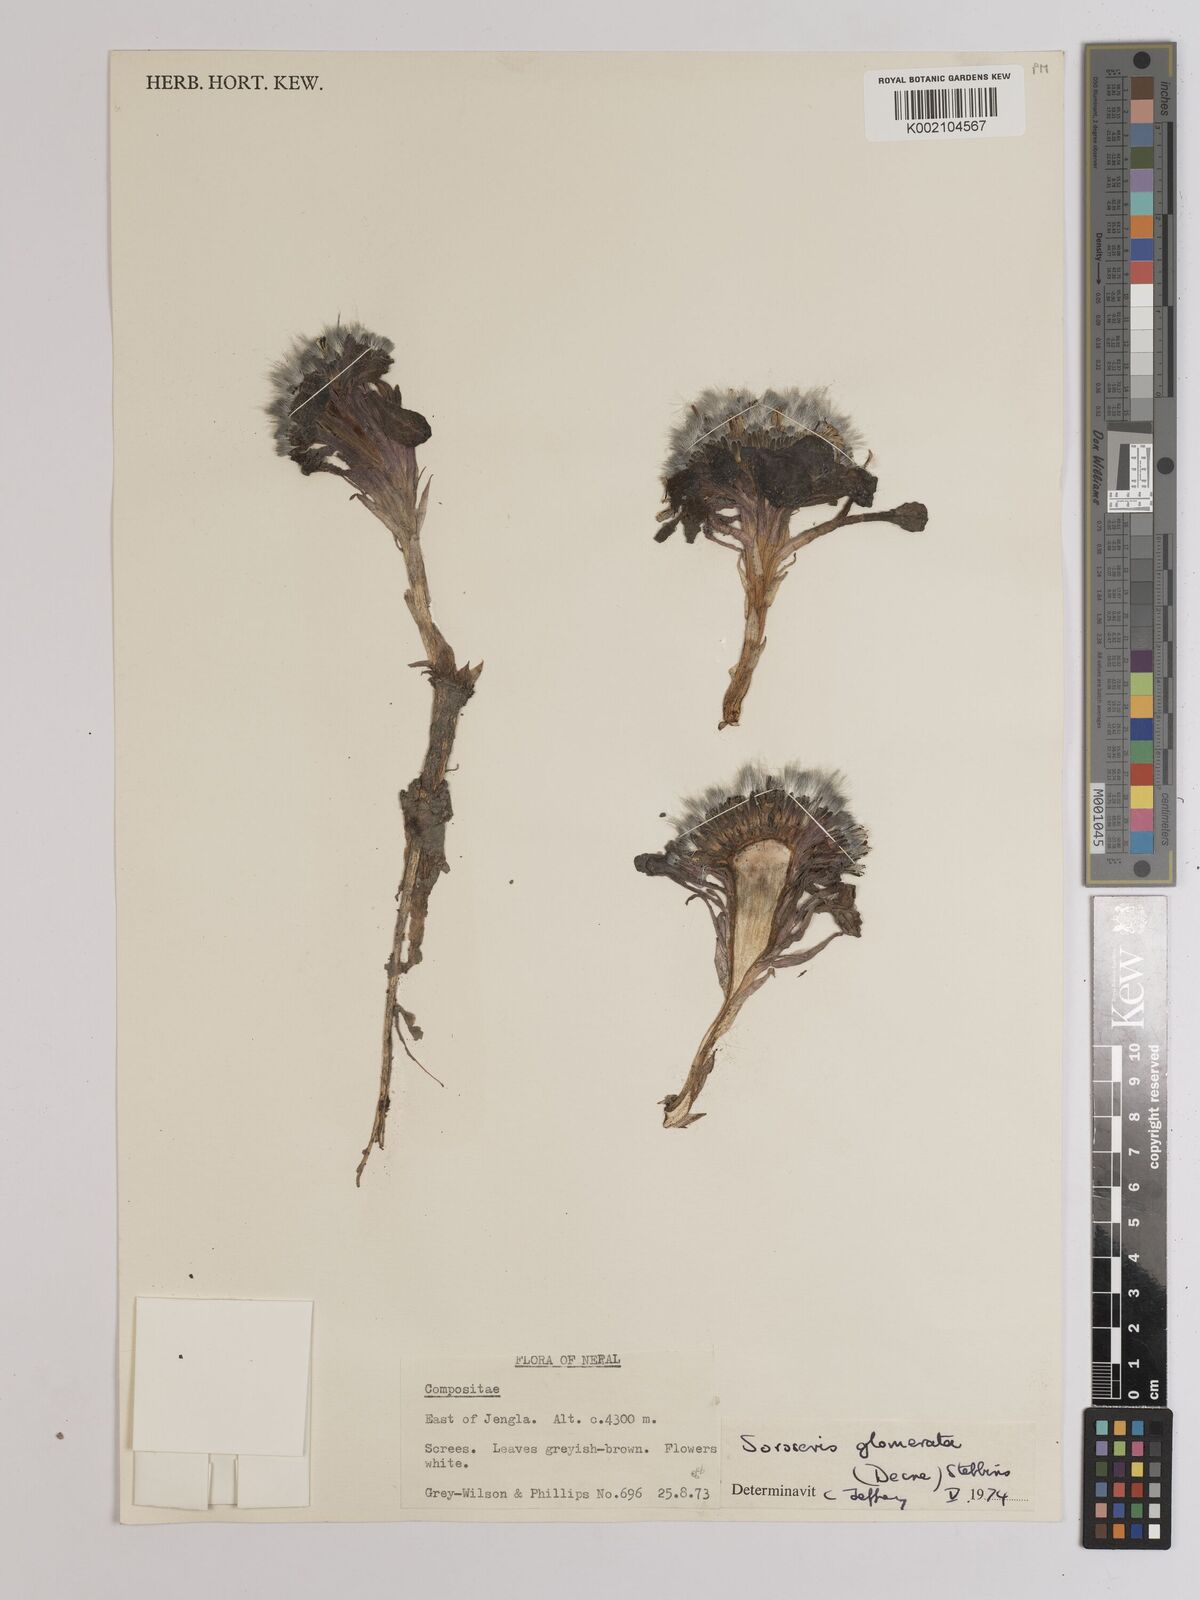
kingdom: Plantae
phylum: Tracheophyta
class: Magnoliopsida
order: Asterales
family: Asteraceae
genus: Soroseris
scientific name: Soroseris glomerata
